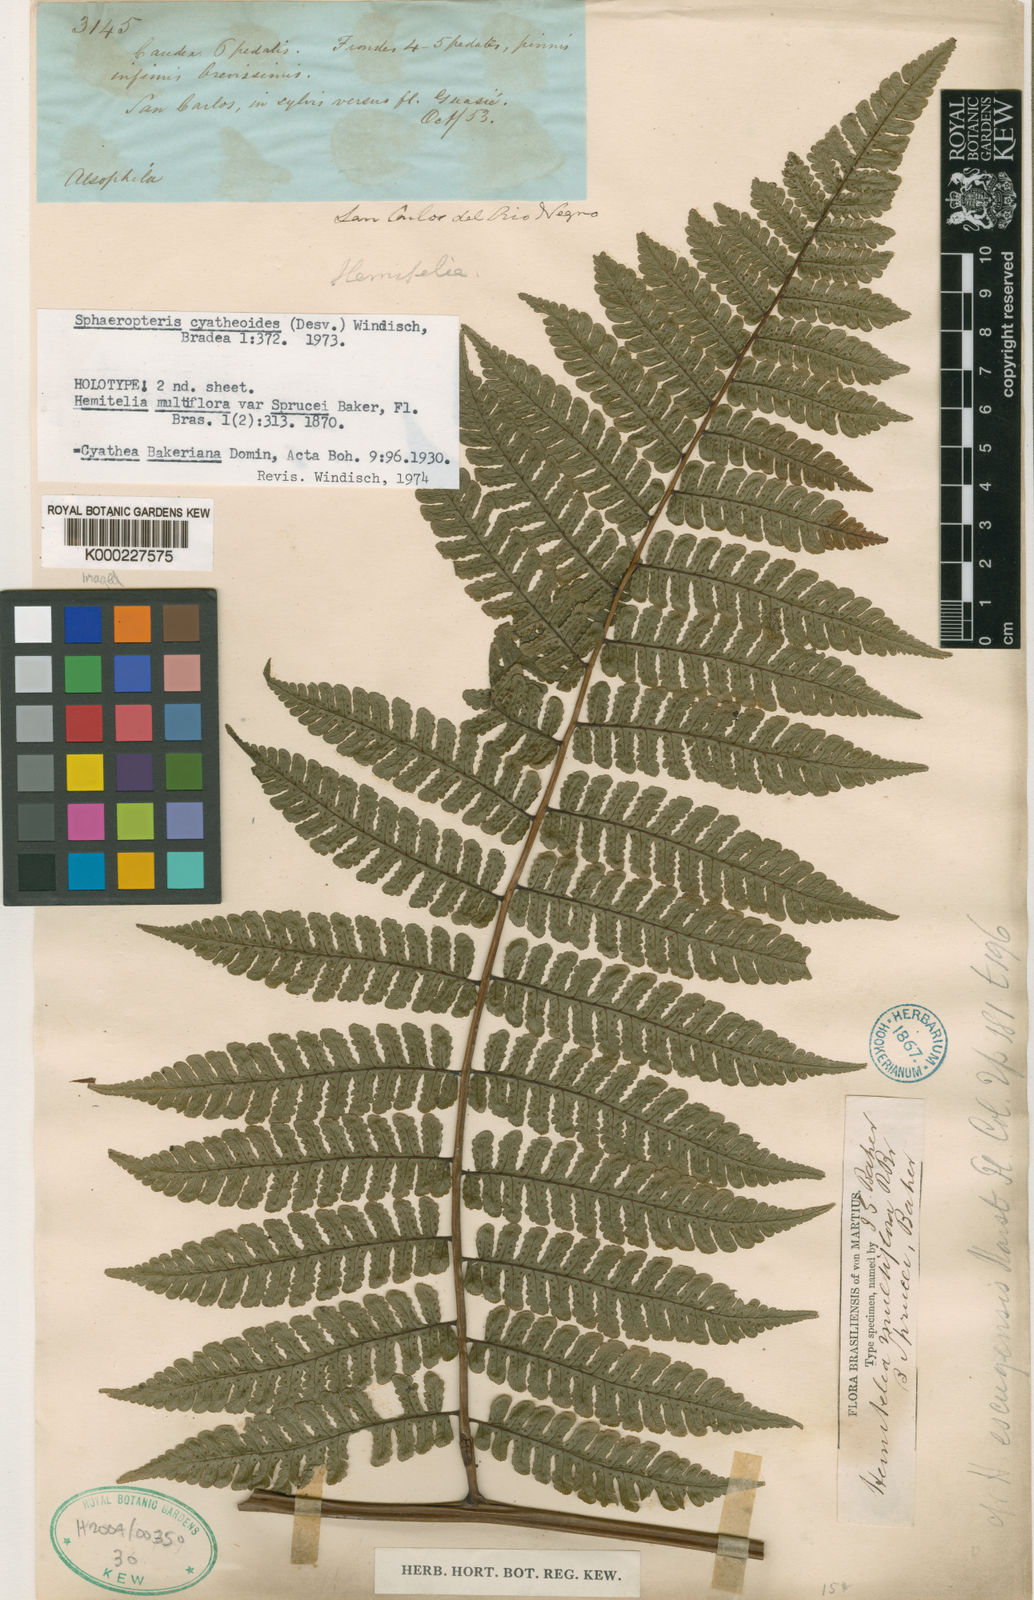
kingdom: Plantae
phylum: Tracheophyta
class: Polypodiopsida
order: Cyatheales
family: Cyatheaceae
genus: Cyathea
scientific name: Cyathea cyatheoides
